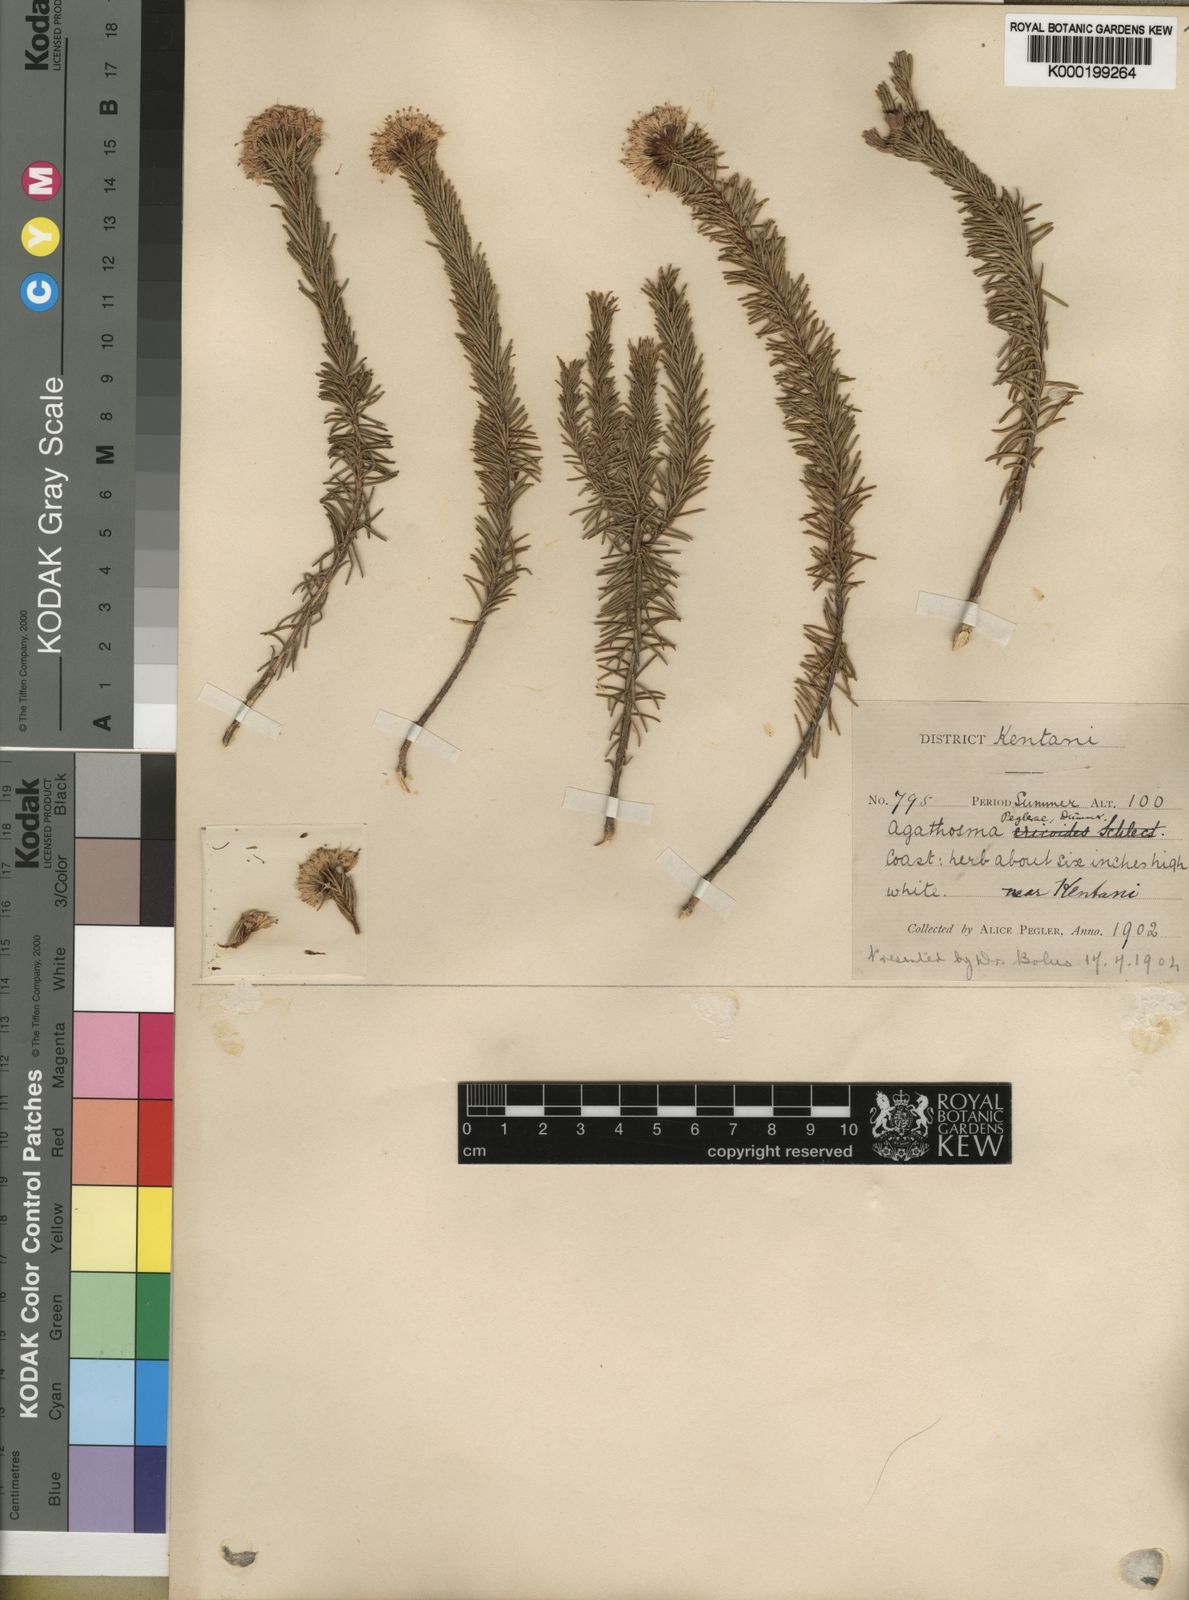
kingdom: Plantae
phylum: Tracheophyta
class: Magnoliopsida
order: Sapindales
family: Rutaceae
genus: Agathosma
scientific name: Agathosma peglerae
